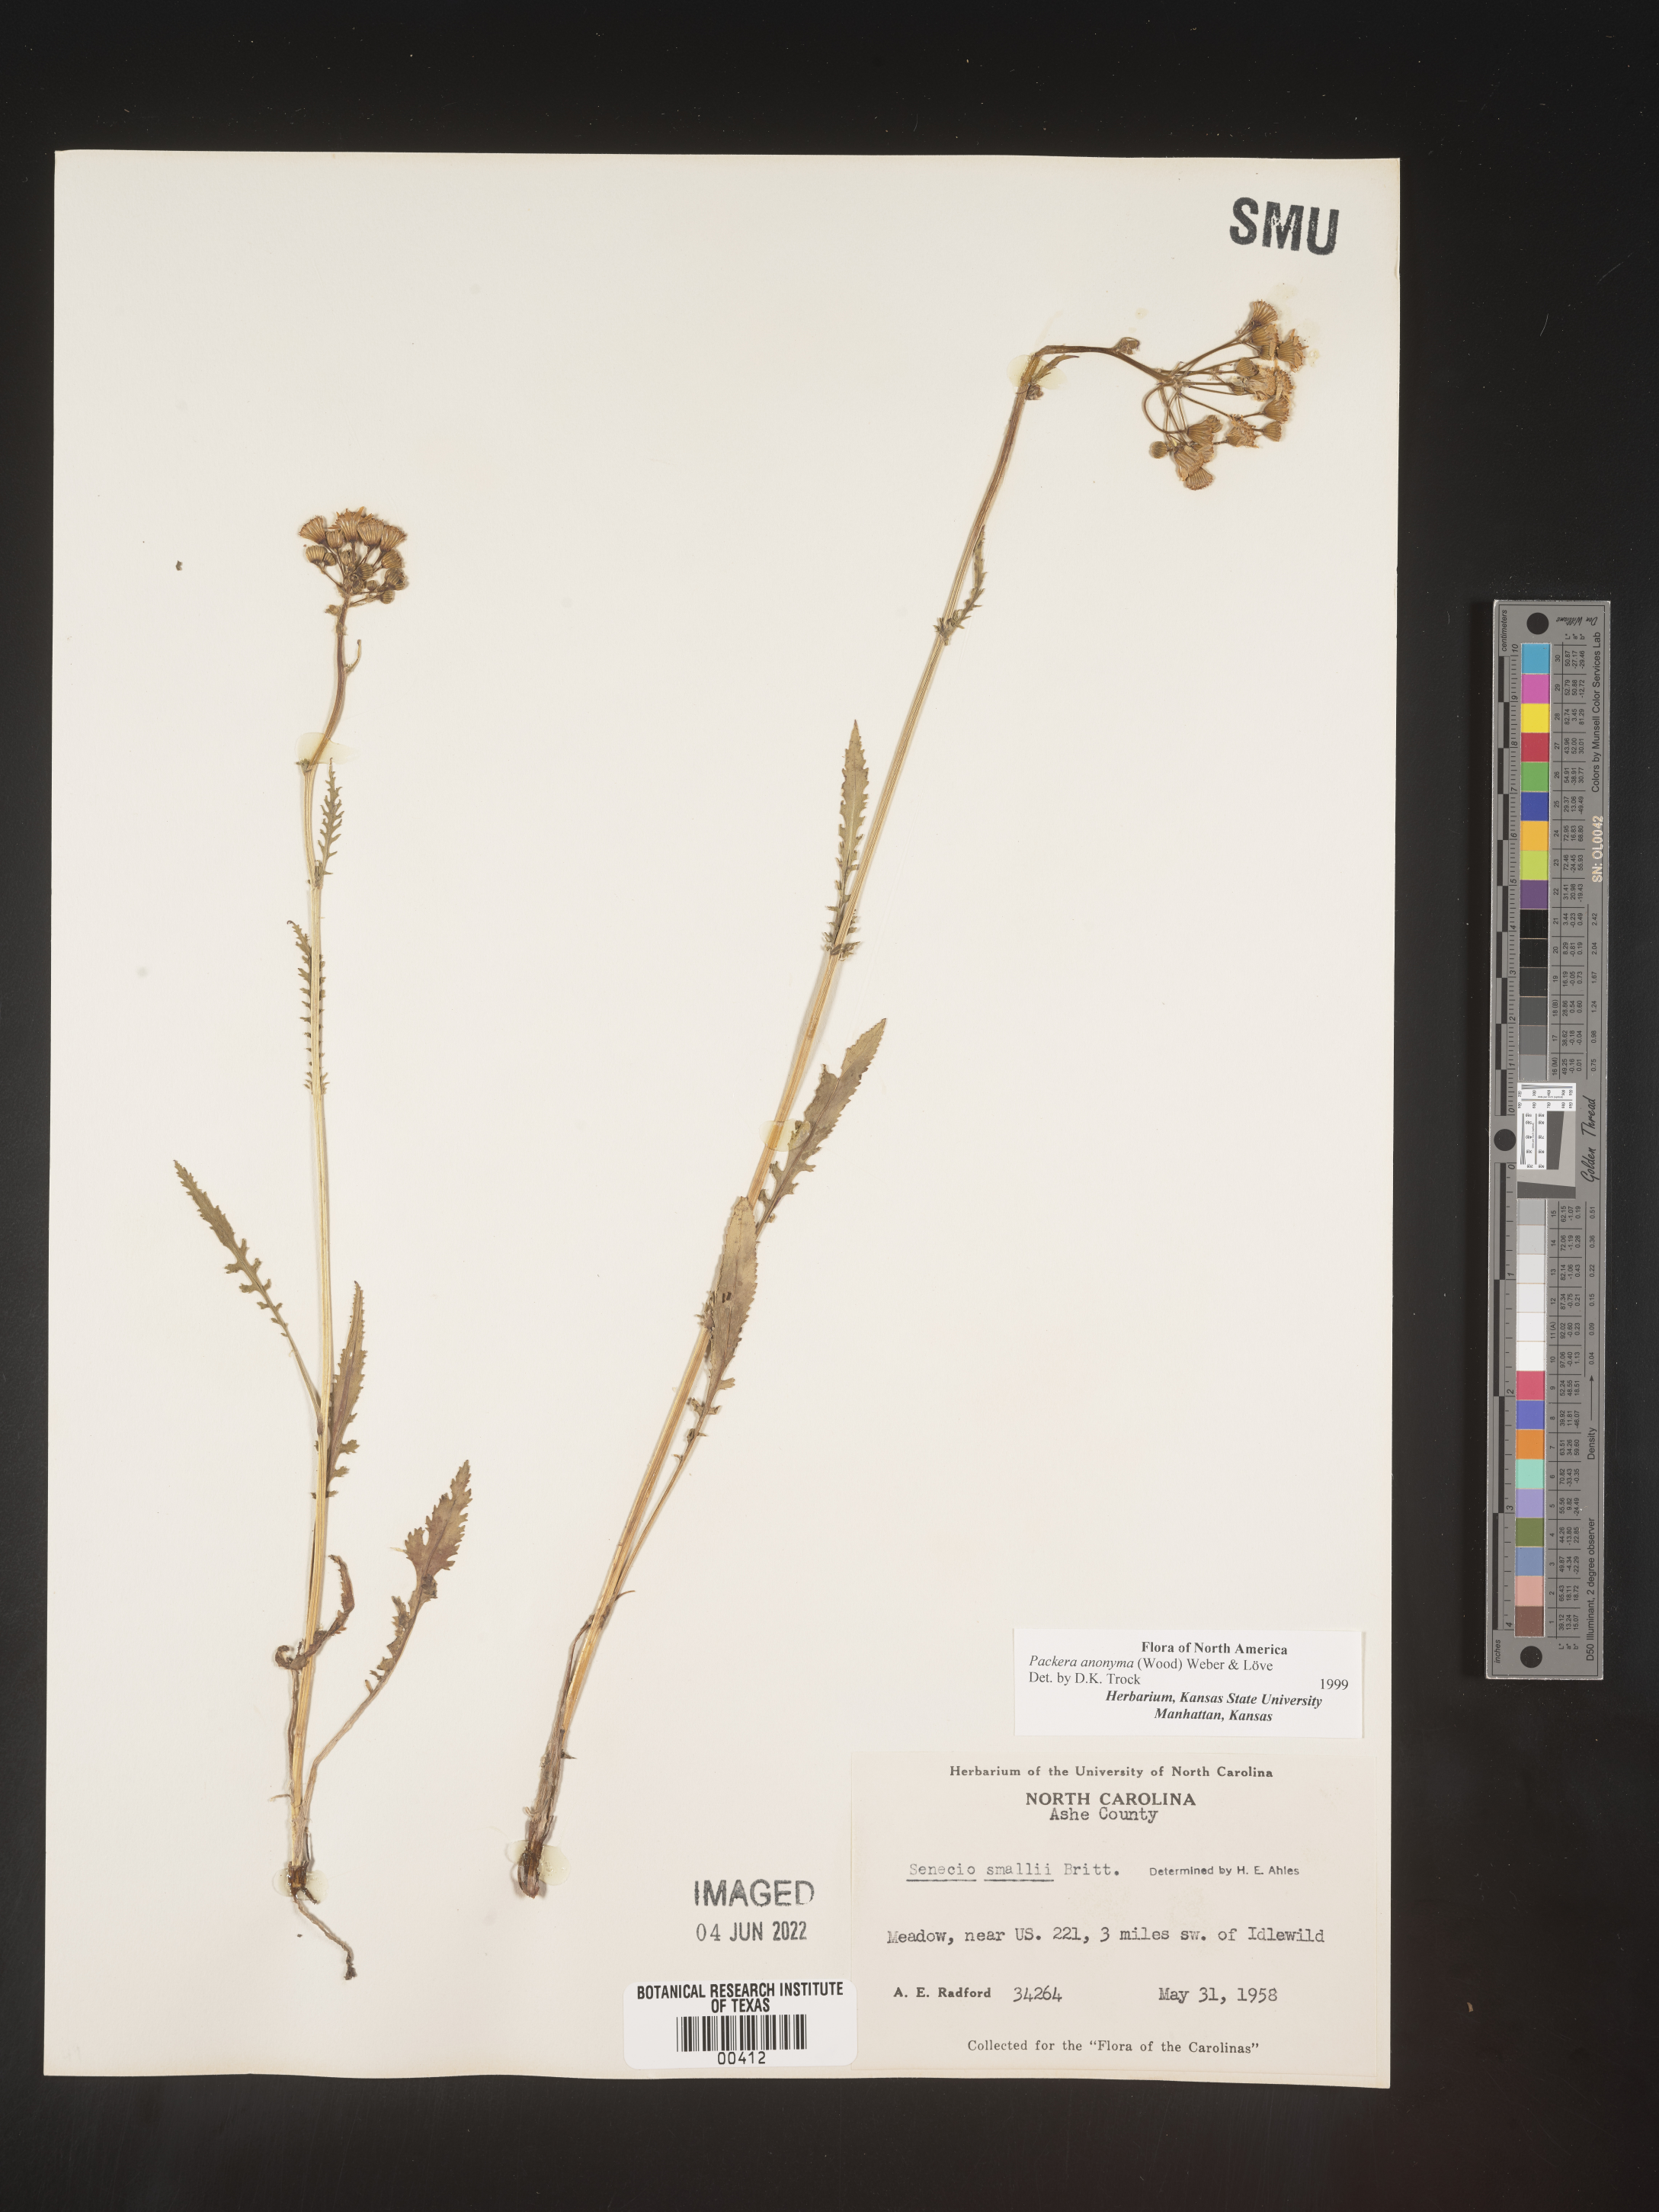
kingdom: Plantae
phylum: Tracheophyta
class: Magnoliopsida
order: Asterales
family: Asteraceae
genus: Packera
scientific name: Packera anonyma
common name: Small ragwort
